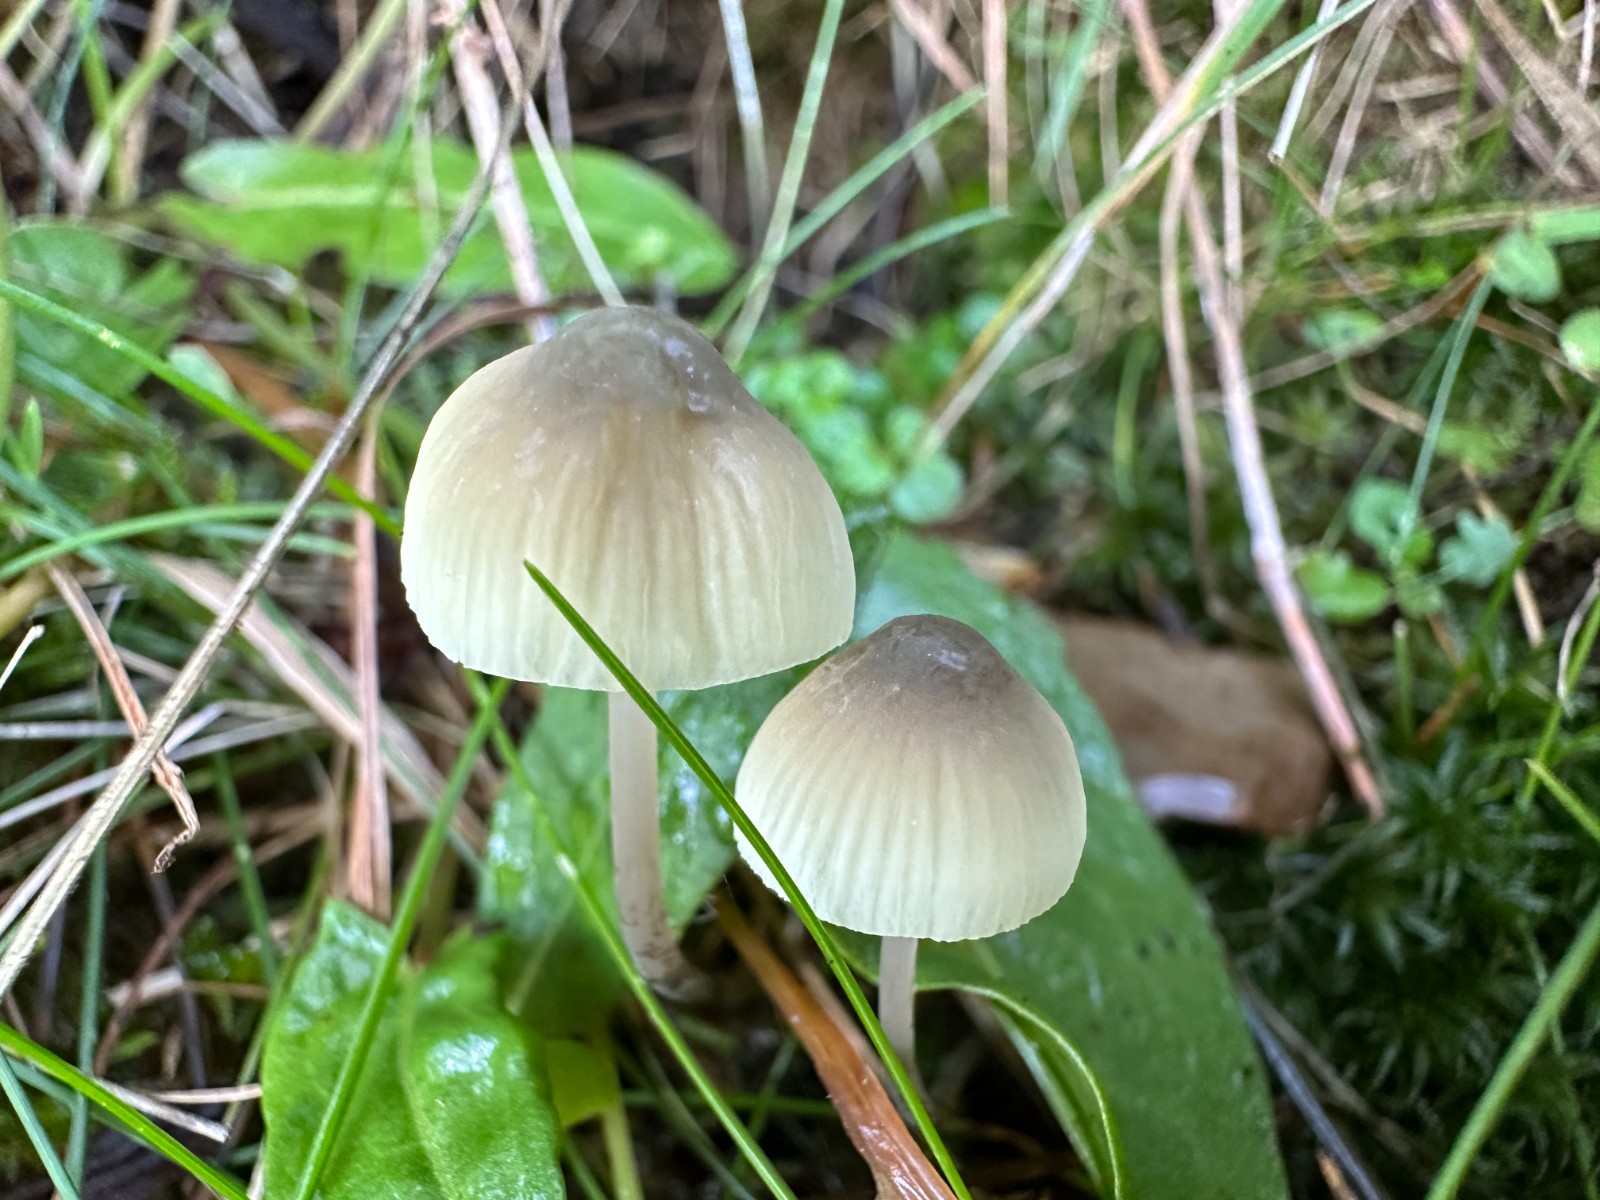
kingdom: Fungi
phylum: Basidiomycota
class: Agaricomycetes
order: Agaricales
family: Mycenaceae
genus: Mycena
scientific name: Mycena arcangeliana
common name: oliven-huesvamp
